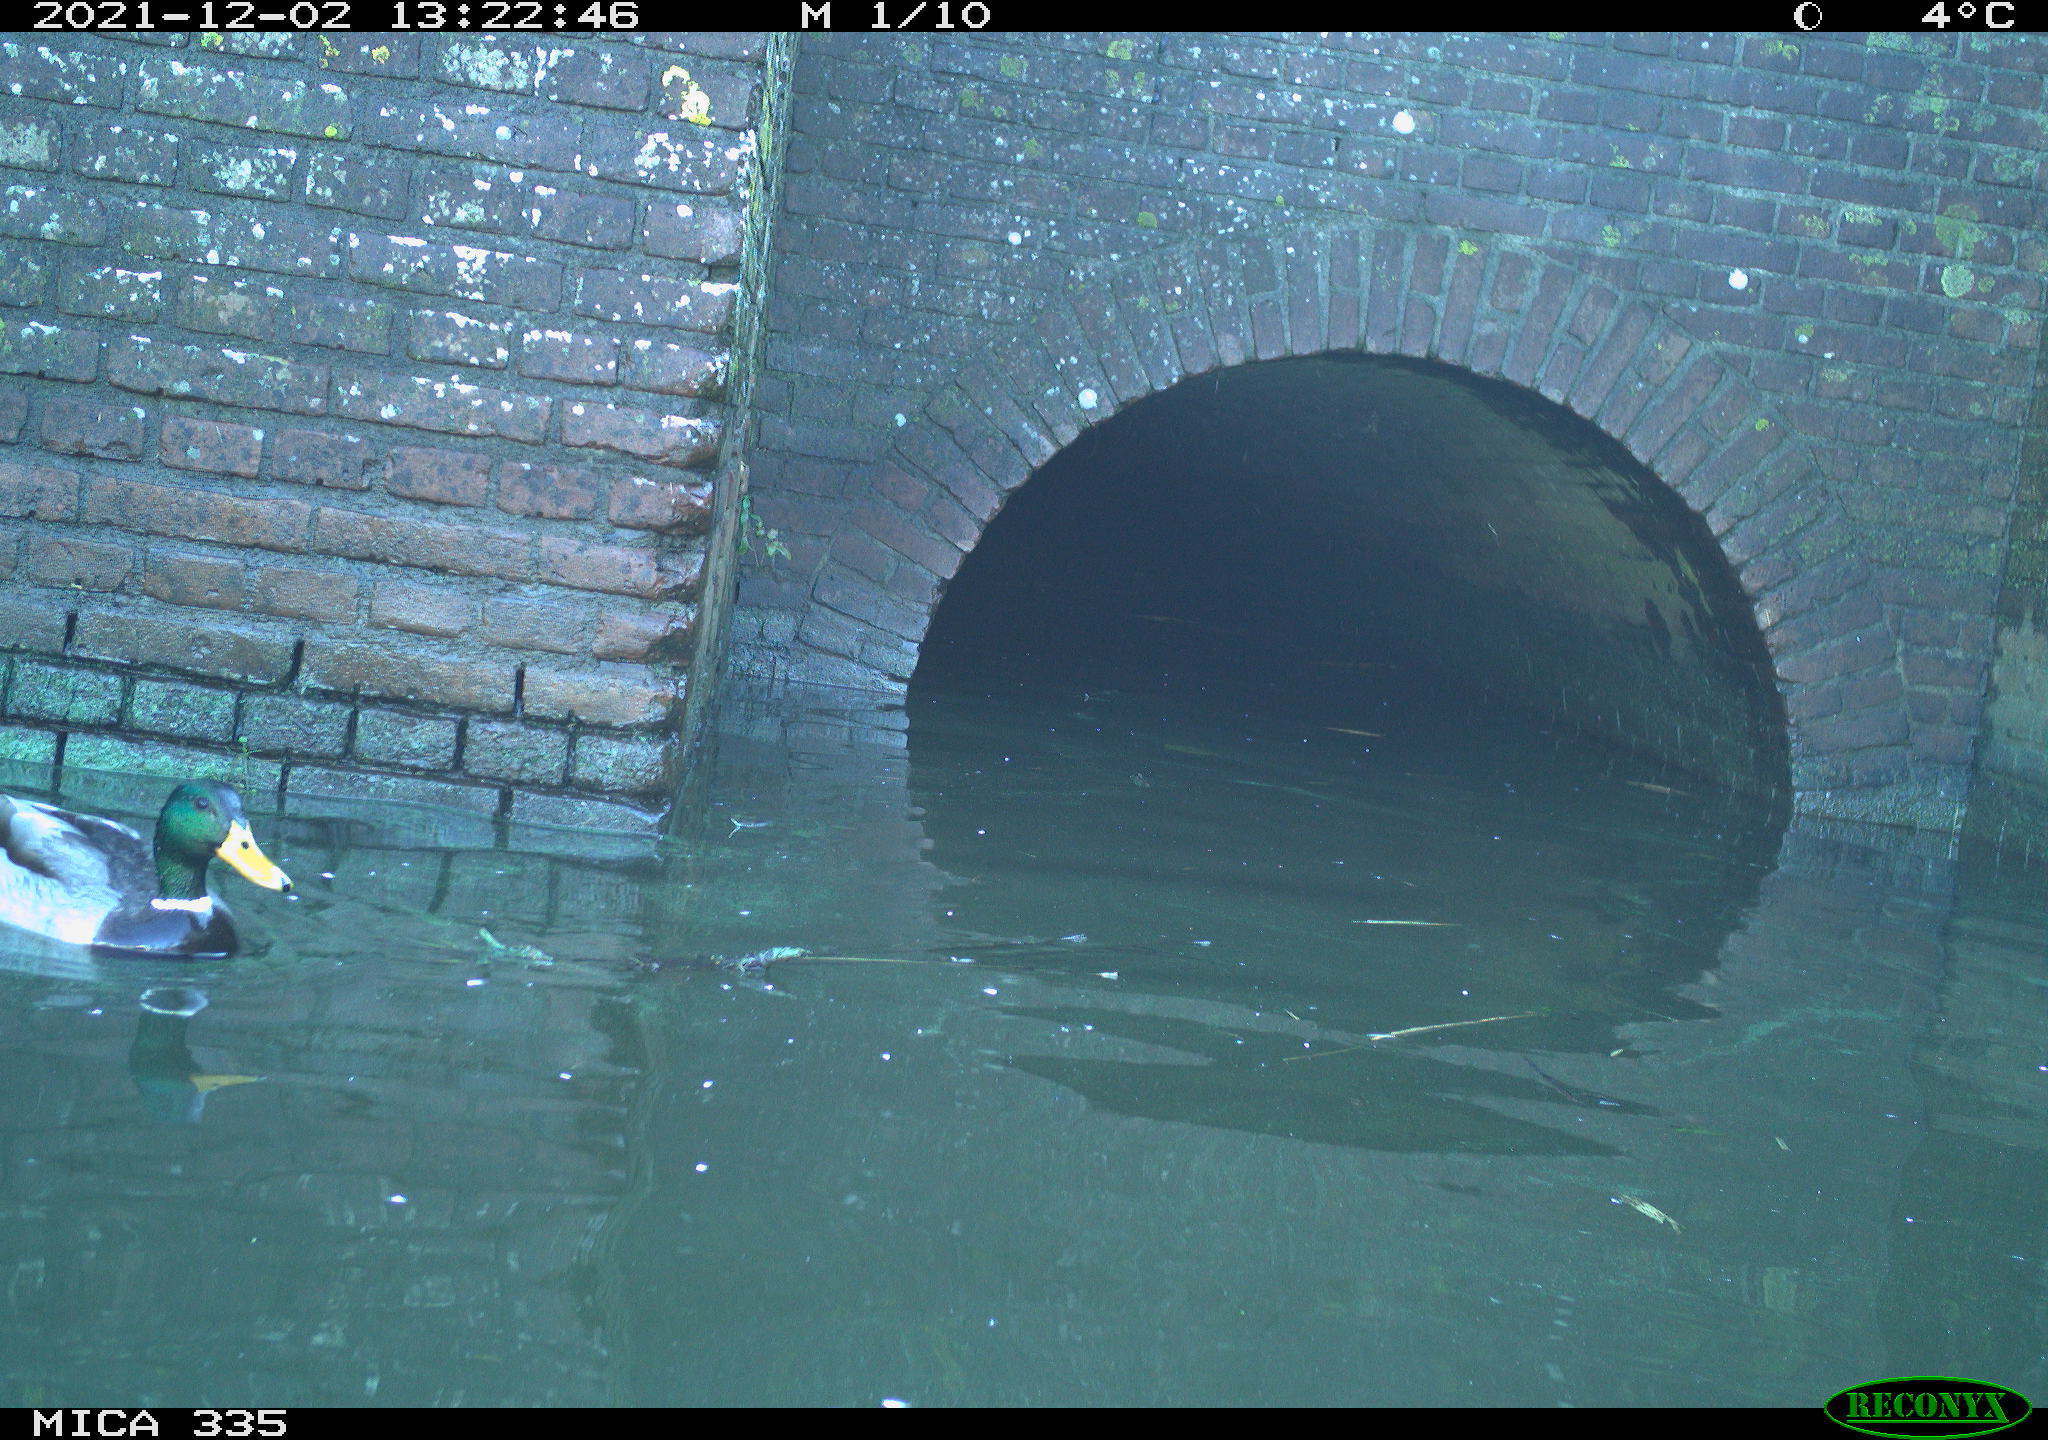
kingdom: Animalia
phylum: Chordata
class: Aves
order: Anseriformes
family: Anatidae
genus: Anas
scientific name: Anas platyrhynchos
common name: Mallard
